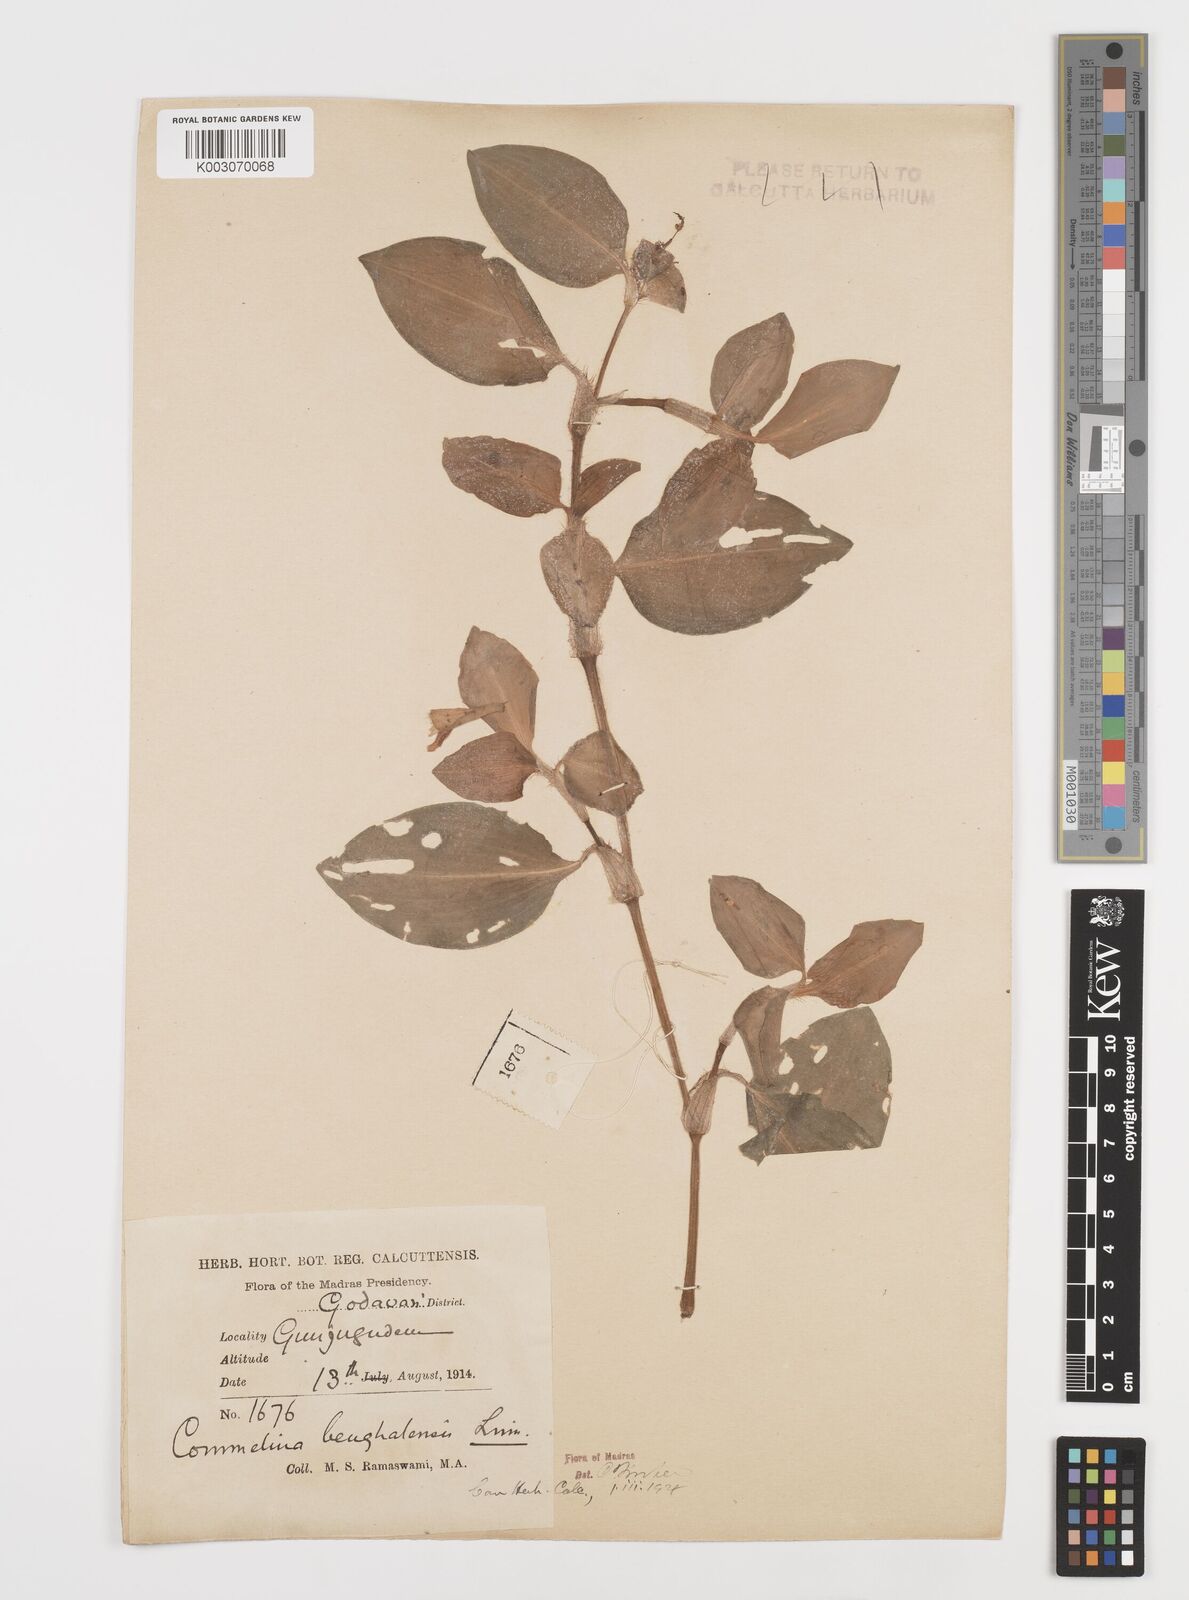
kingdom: Plantae
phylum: Tracheophyta
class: Liliopsida
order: Commelinales
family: Commelinaceae
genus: Commelina
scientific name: Commelina benghalensis
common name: Jio
